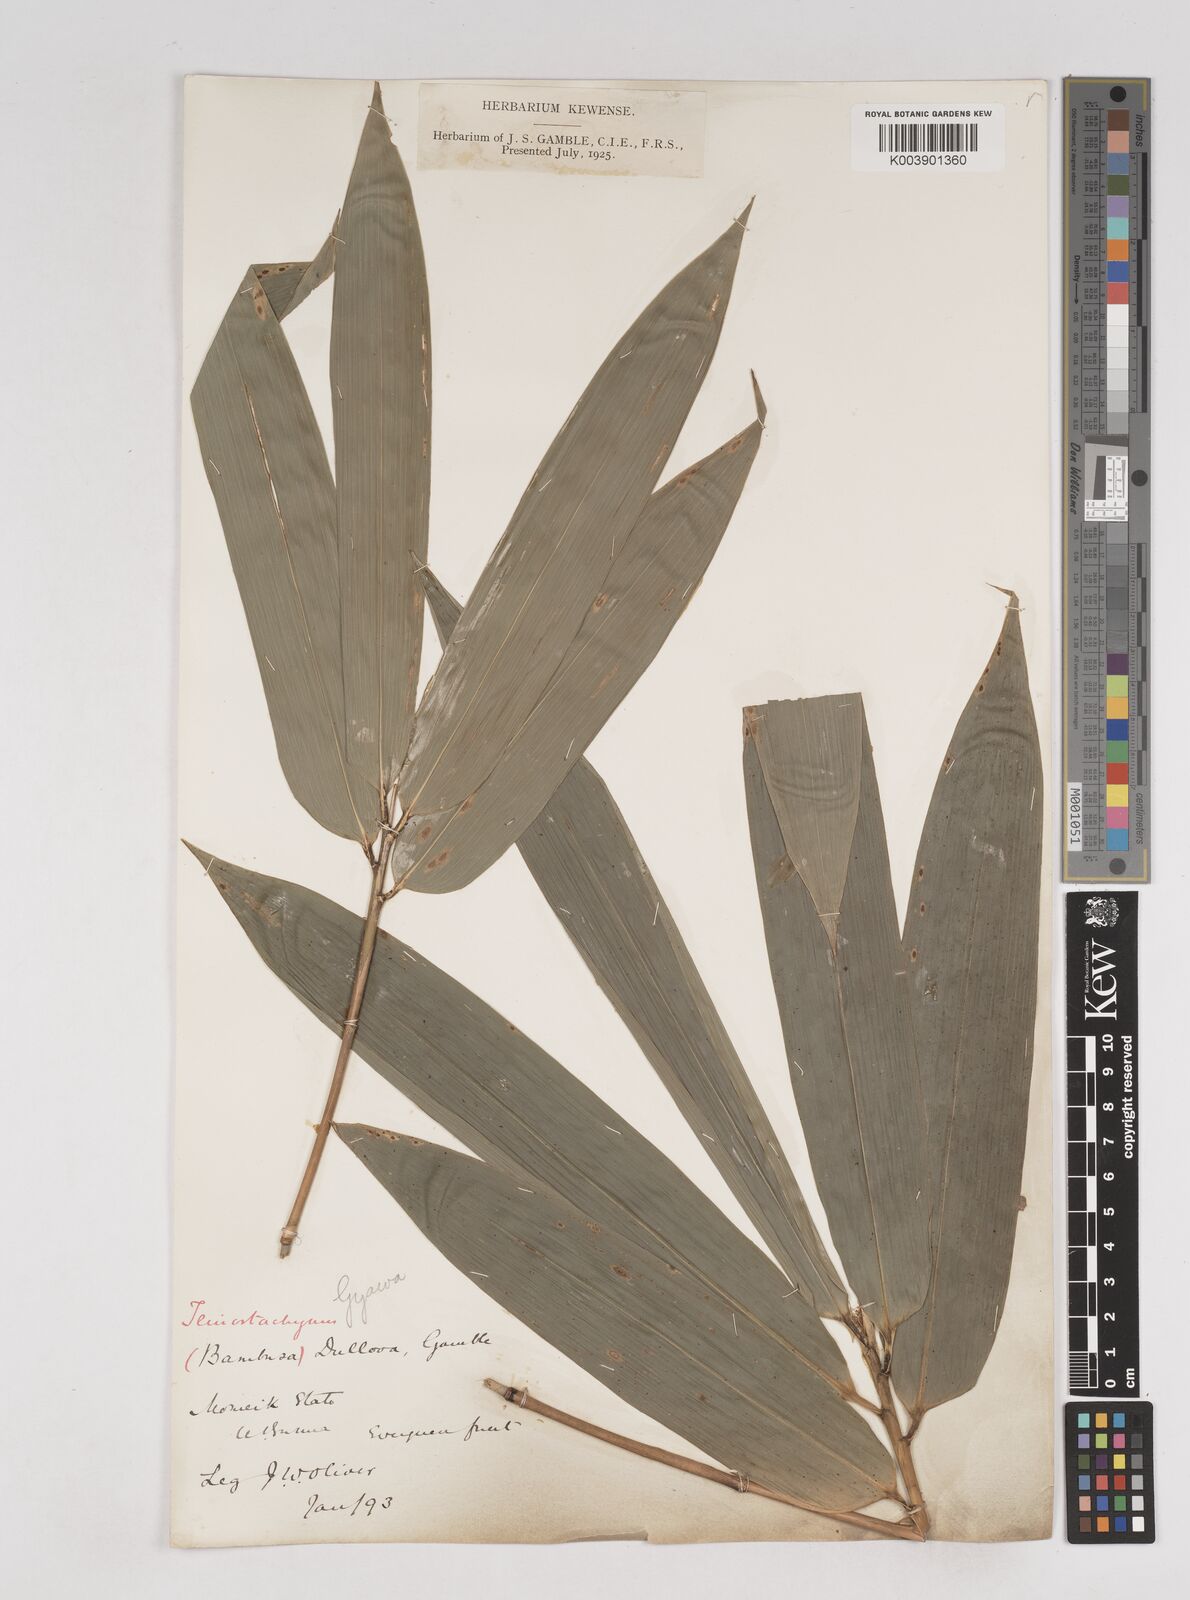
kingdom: Plantae
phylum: Tracheophyta
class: Liliopsida
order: Poales
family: Poaceae
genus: Schizostachyum
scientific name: Schizostachyum dullooa
